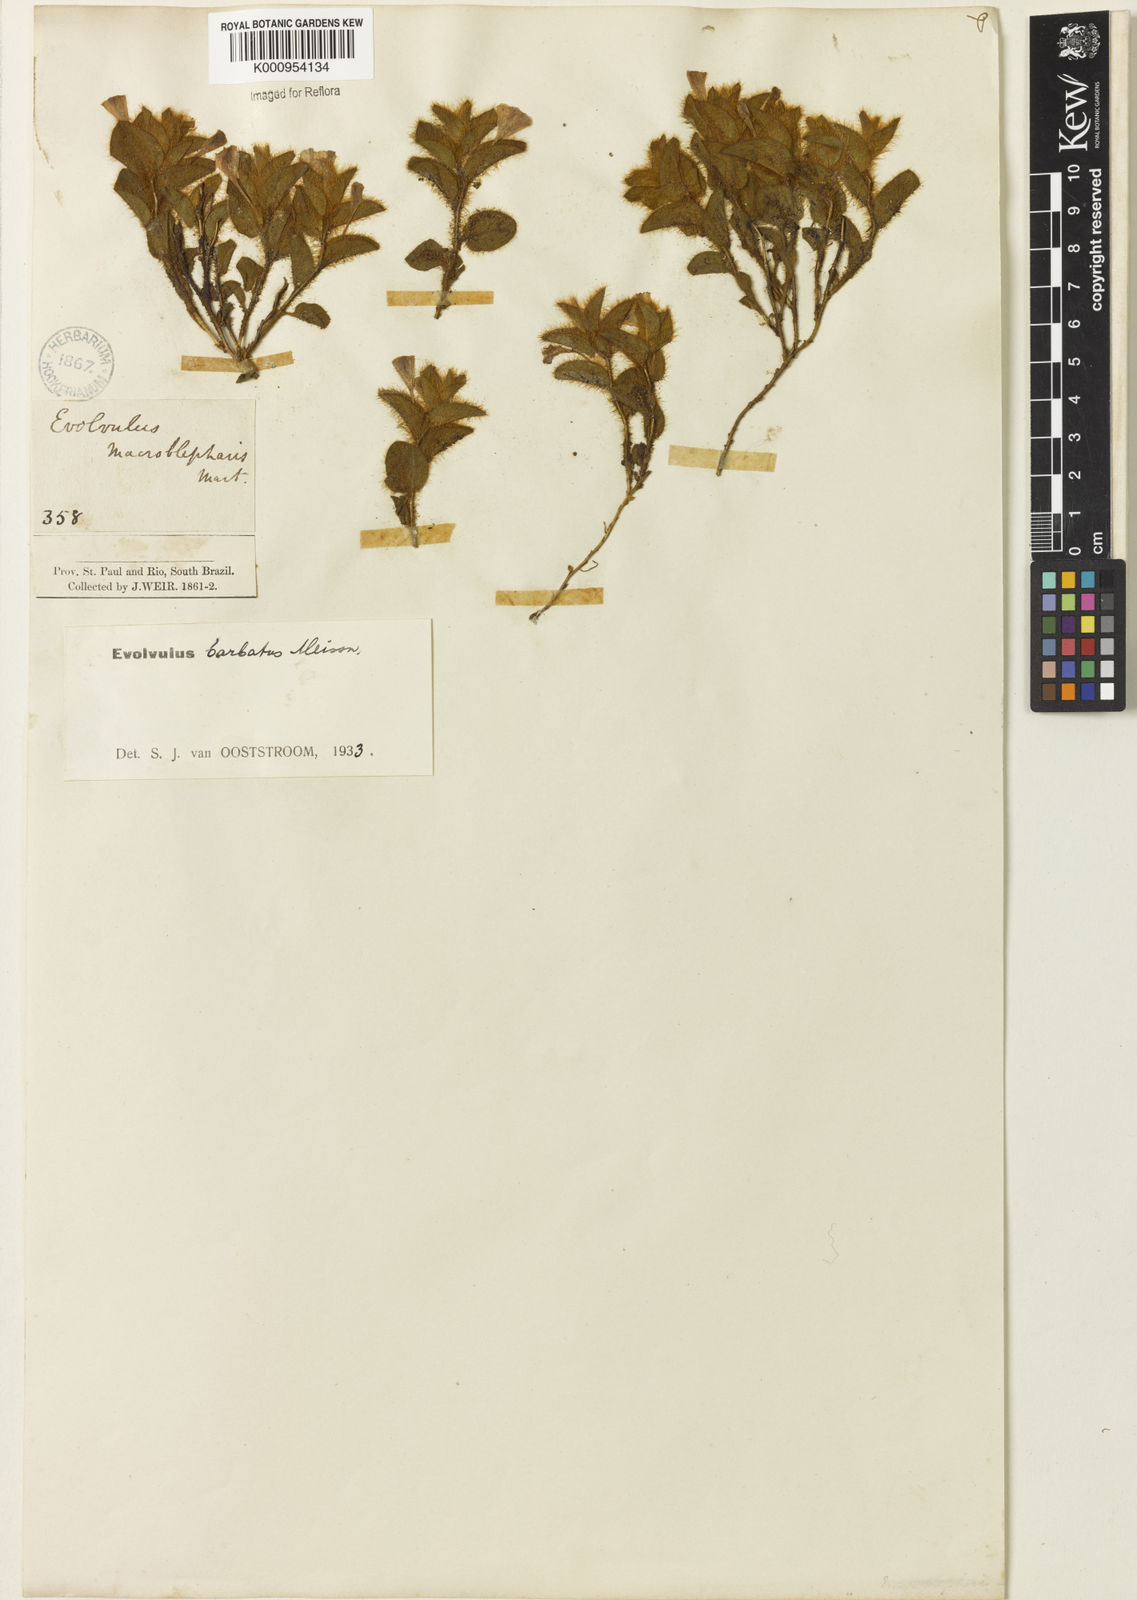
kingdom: Plantae
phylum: Tracheophyta
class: Magnoliopsida
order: Solanales
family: Convolvulaceae
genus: Evolvulus
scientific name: Evolvulus barbatus
